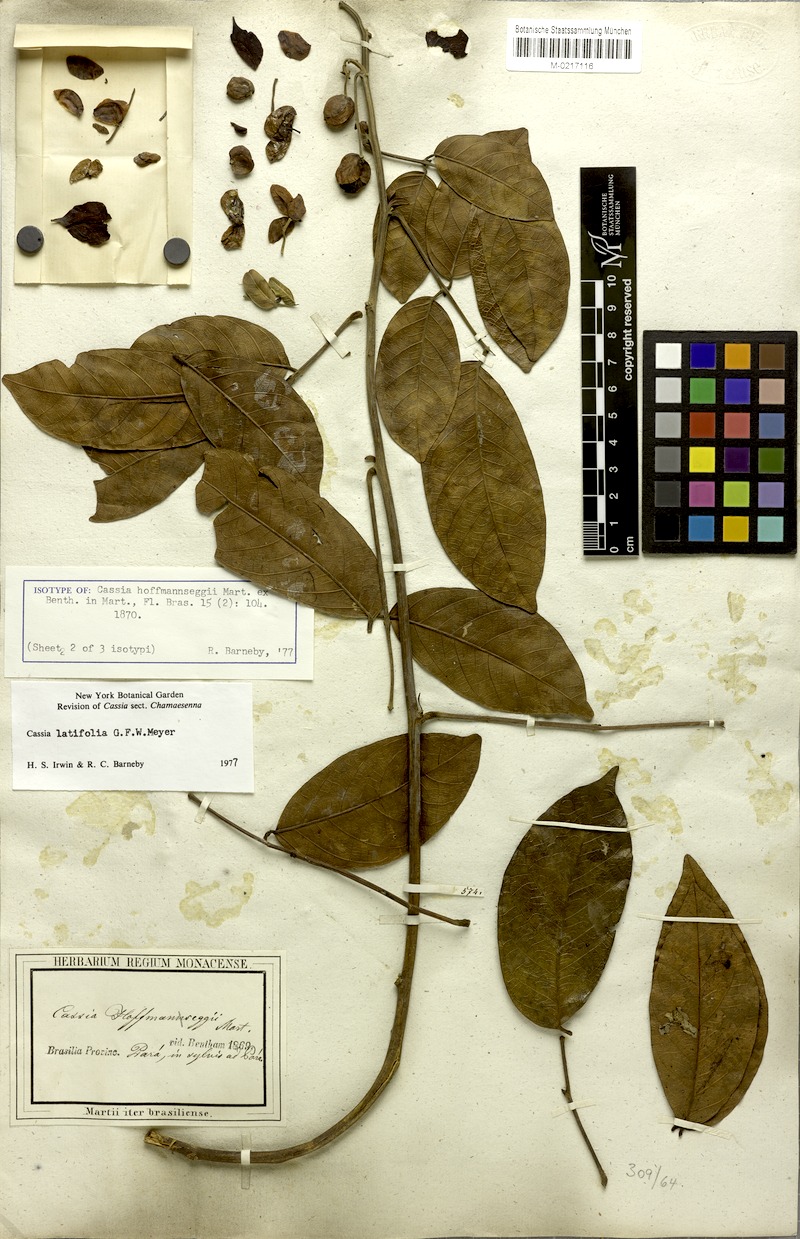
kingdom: Plantae
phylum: Tracheophyta
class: Magnoliopsida
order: Fabales
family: Fabaceae
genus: Senna
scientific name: Senna latifolia
